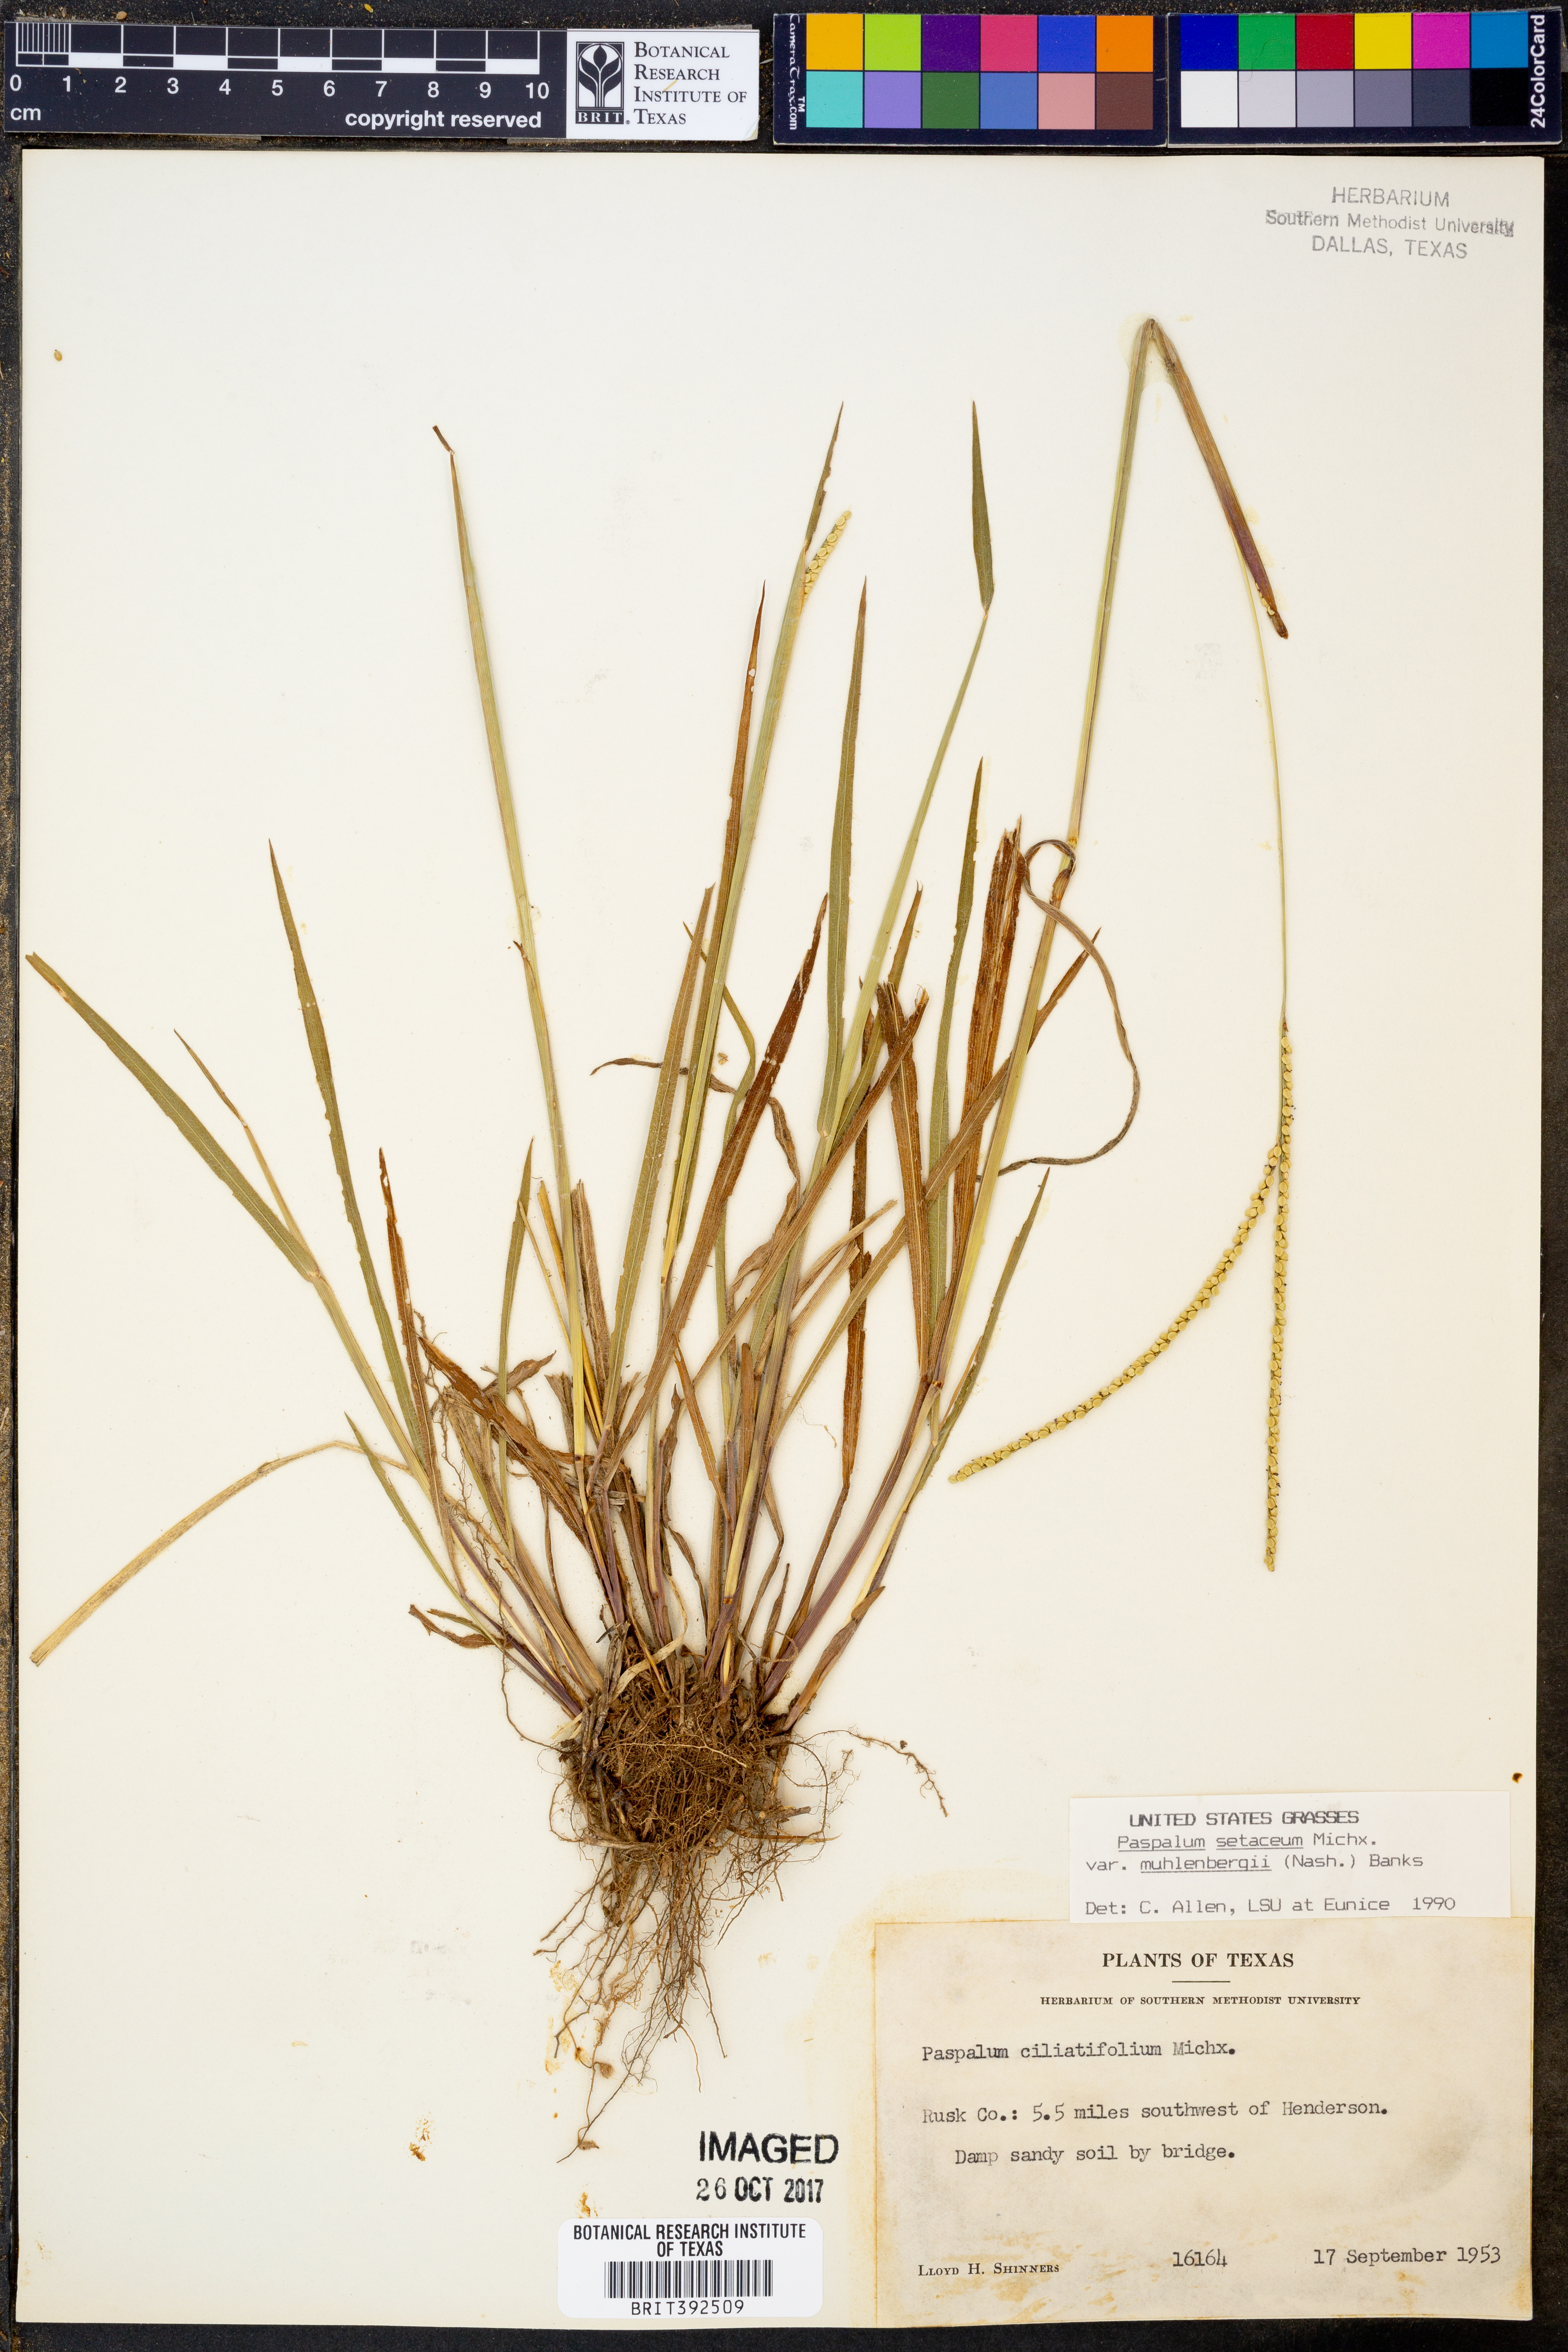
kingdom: Plantae
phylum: Tracheophyta
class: Liliopsida
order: Poales
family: Poaceae
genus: Paspalum
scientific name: Paspalum setaceum
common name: Slender paspalum
